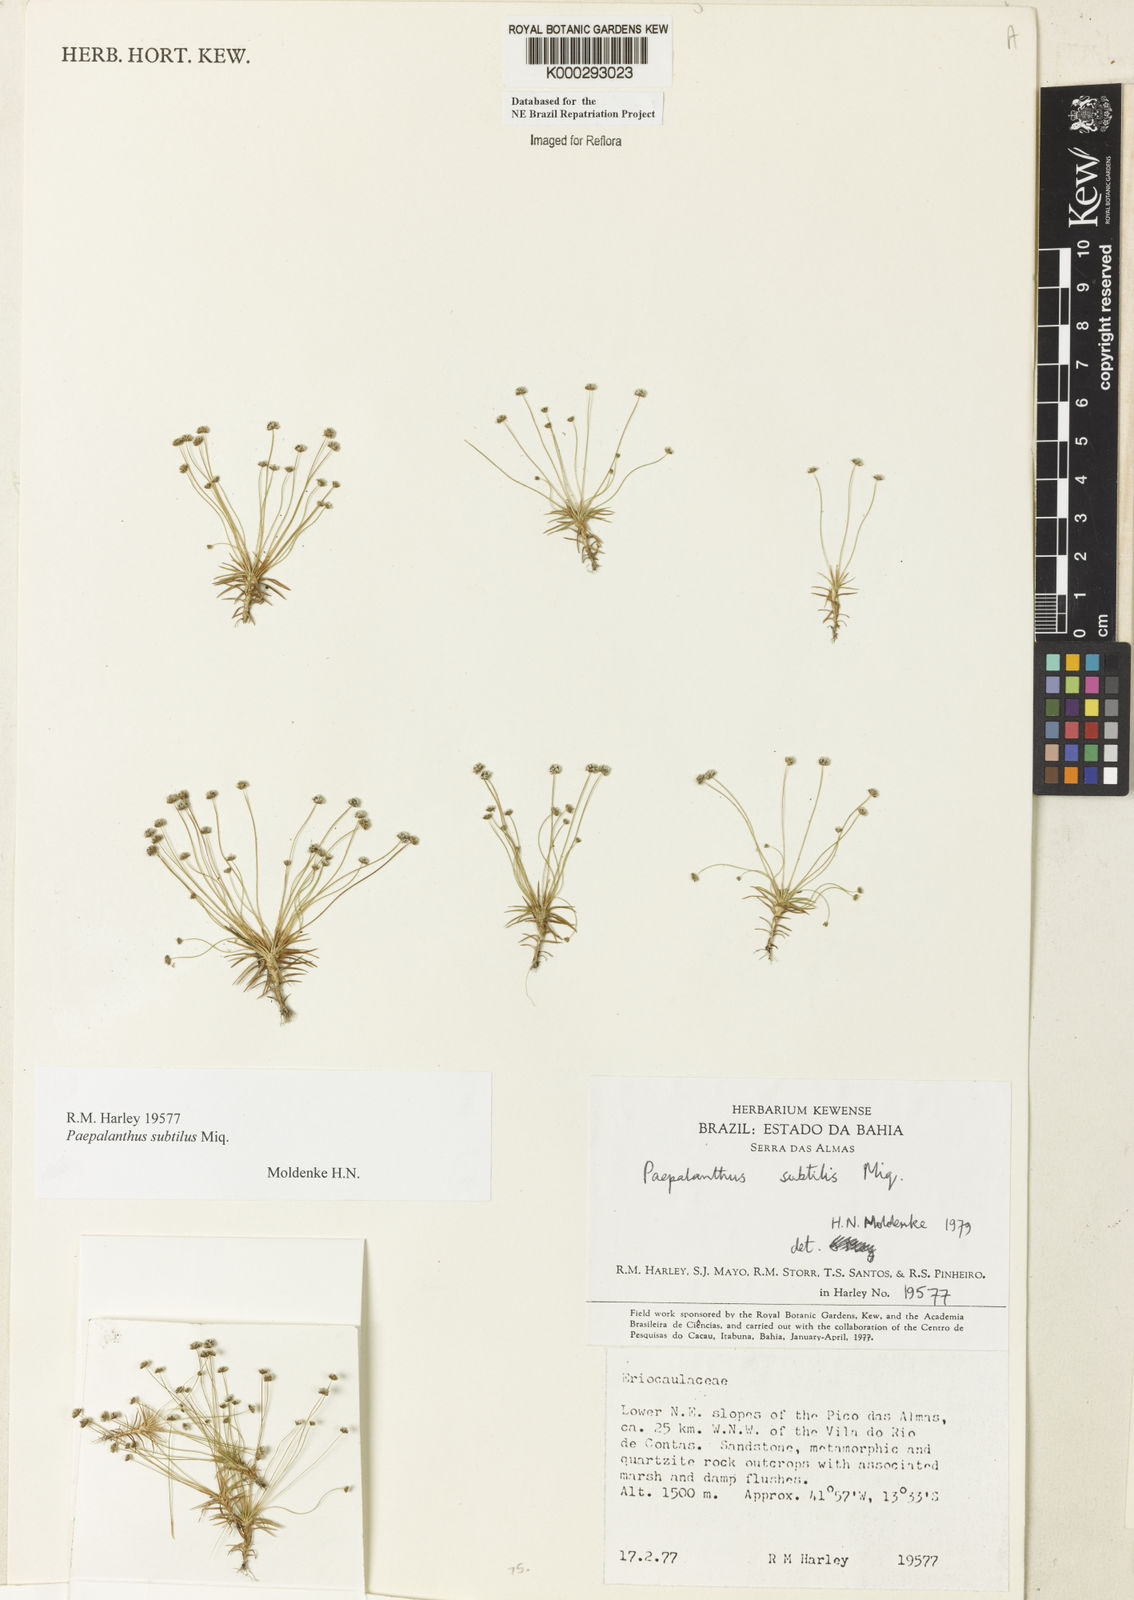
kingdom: Plantae
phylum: Tracheophyta
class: Liliopsida
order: Poales
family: Eriocaulaceae
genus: Paepalanthus
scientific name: Paepalanthus subtilis
